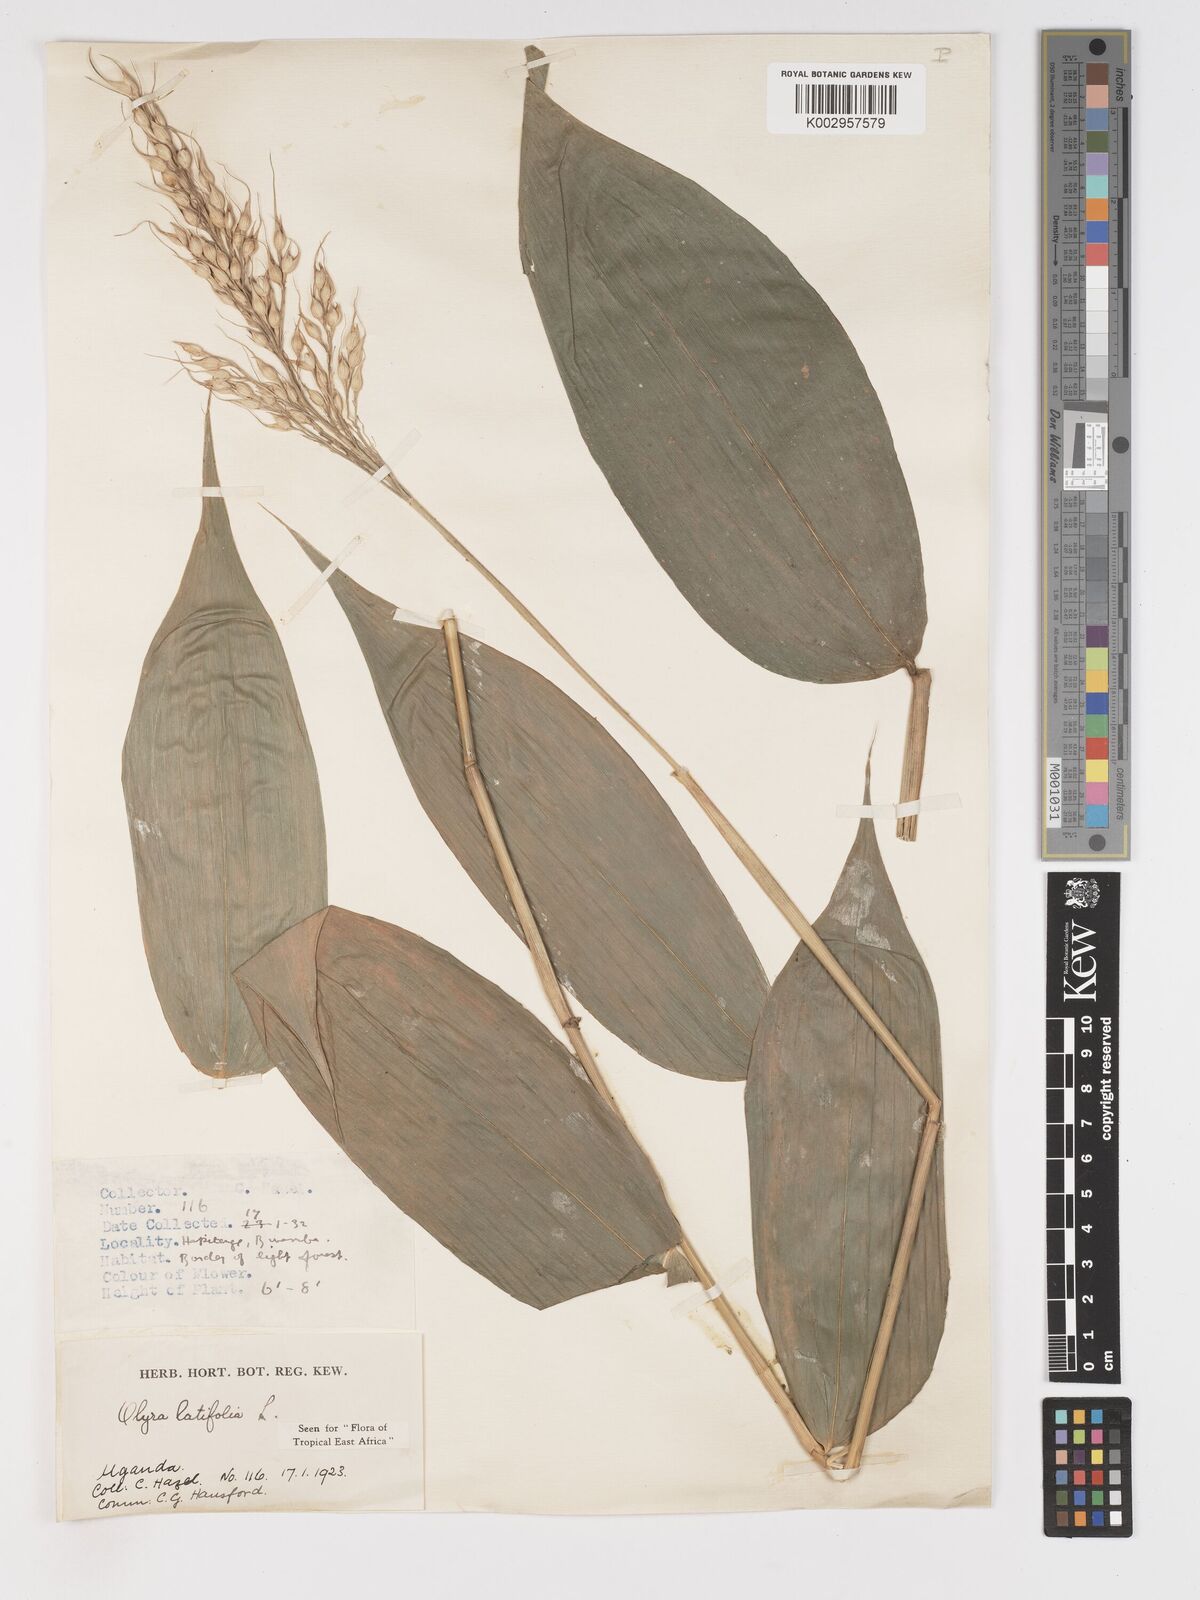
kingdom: Plantae
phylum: Tracheophyta
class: Liliopsida
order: Poales
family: Poaceae
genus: Olyra
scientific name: Olyra latifolia
